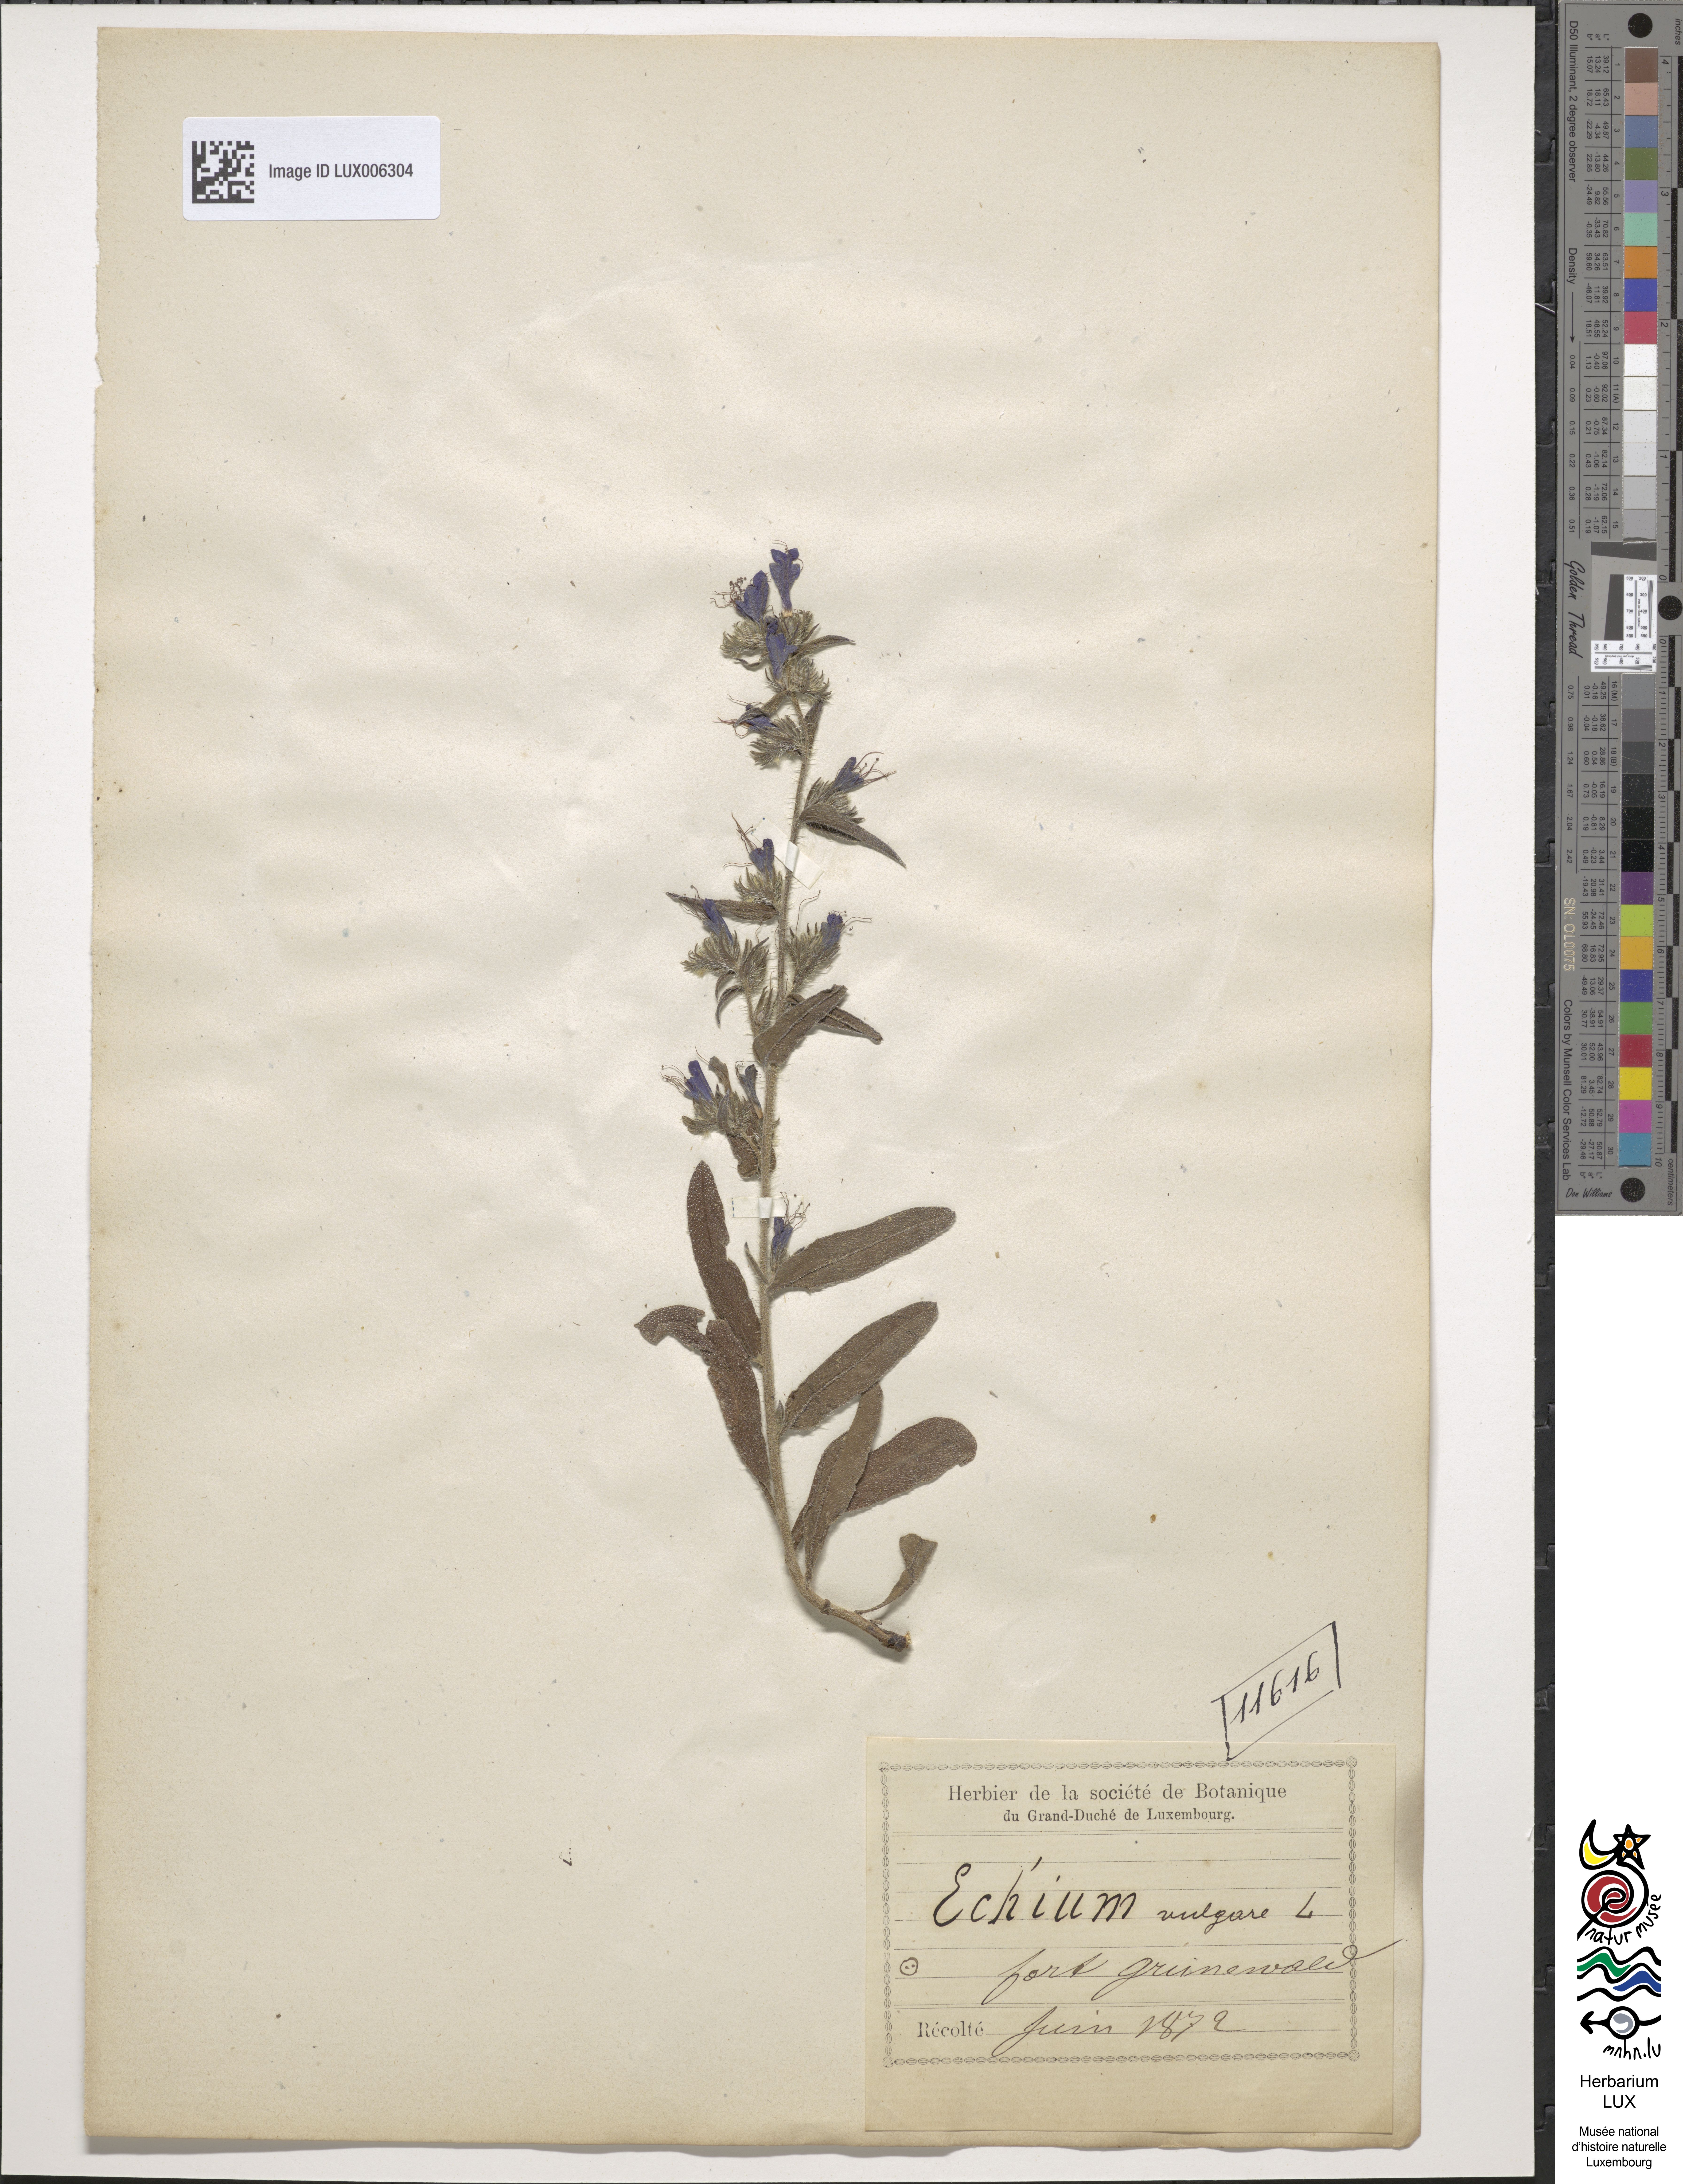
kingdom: Plantae
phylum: Tracheophyta
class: Magnoliopsida
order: Boraginales
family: Boraginaceae
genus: Echium
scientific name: Echium vulgare
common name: Common viper's bugloss
